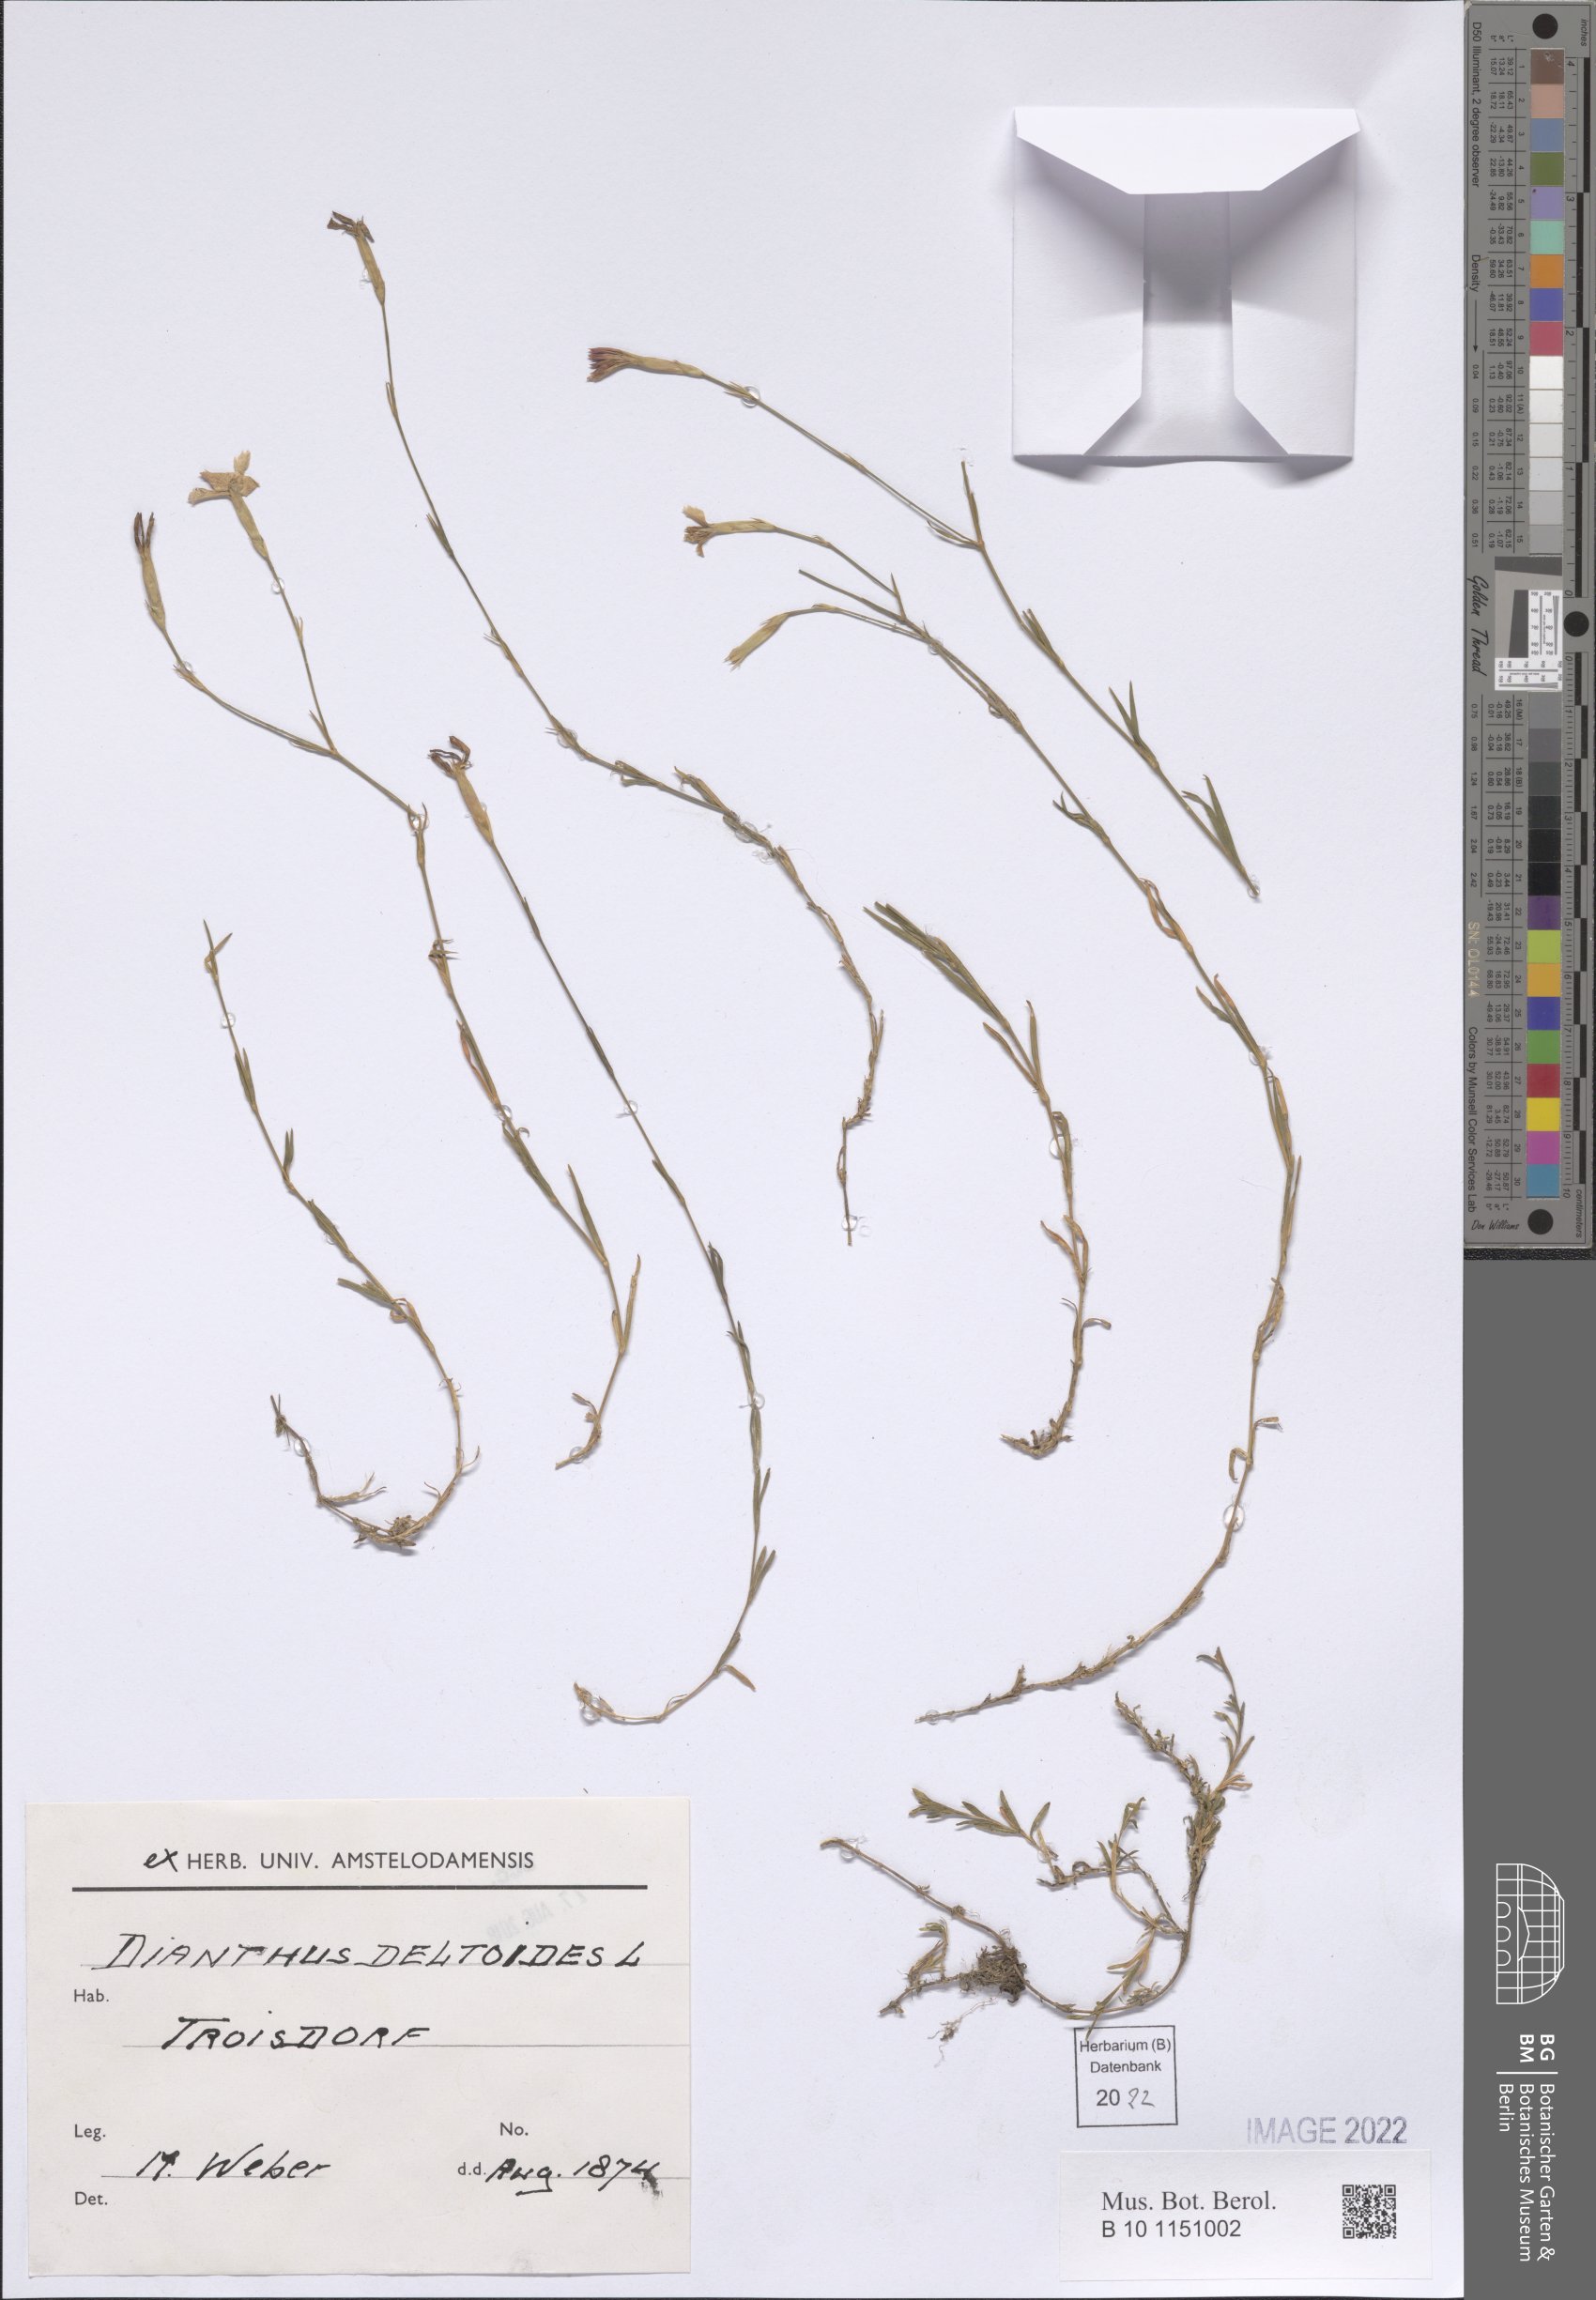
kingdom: Plantae
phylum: Tracheophyta
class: Magnoliopsida
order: Caryophyllales
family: Caryophyllaceae
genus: Dianthus
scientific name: Dianthus deltoides
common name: Maiden pink
